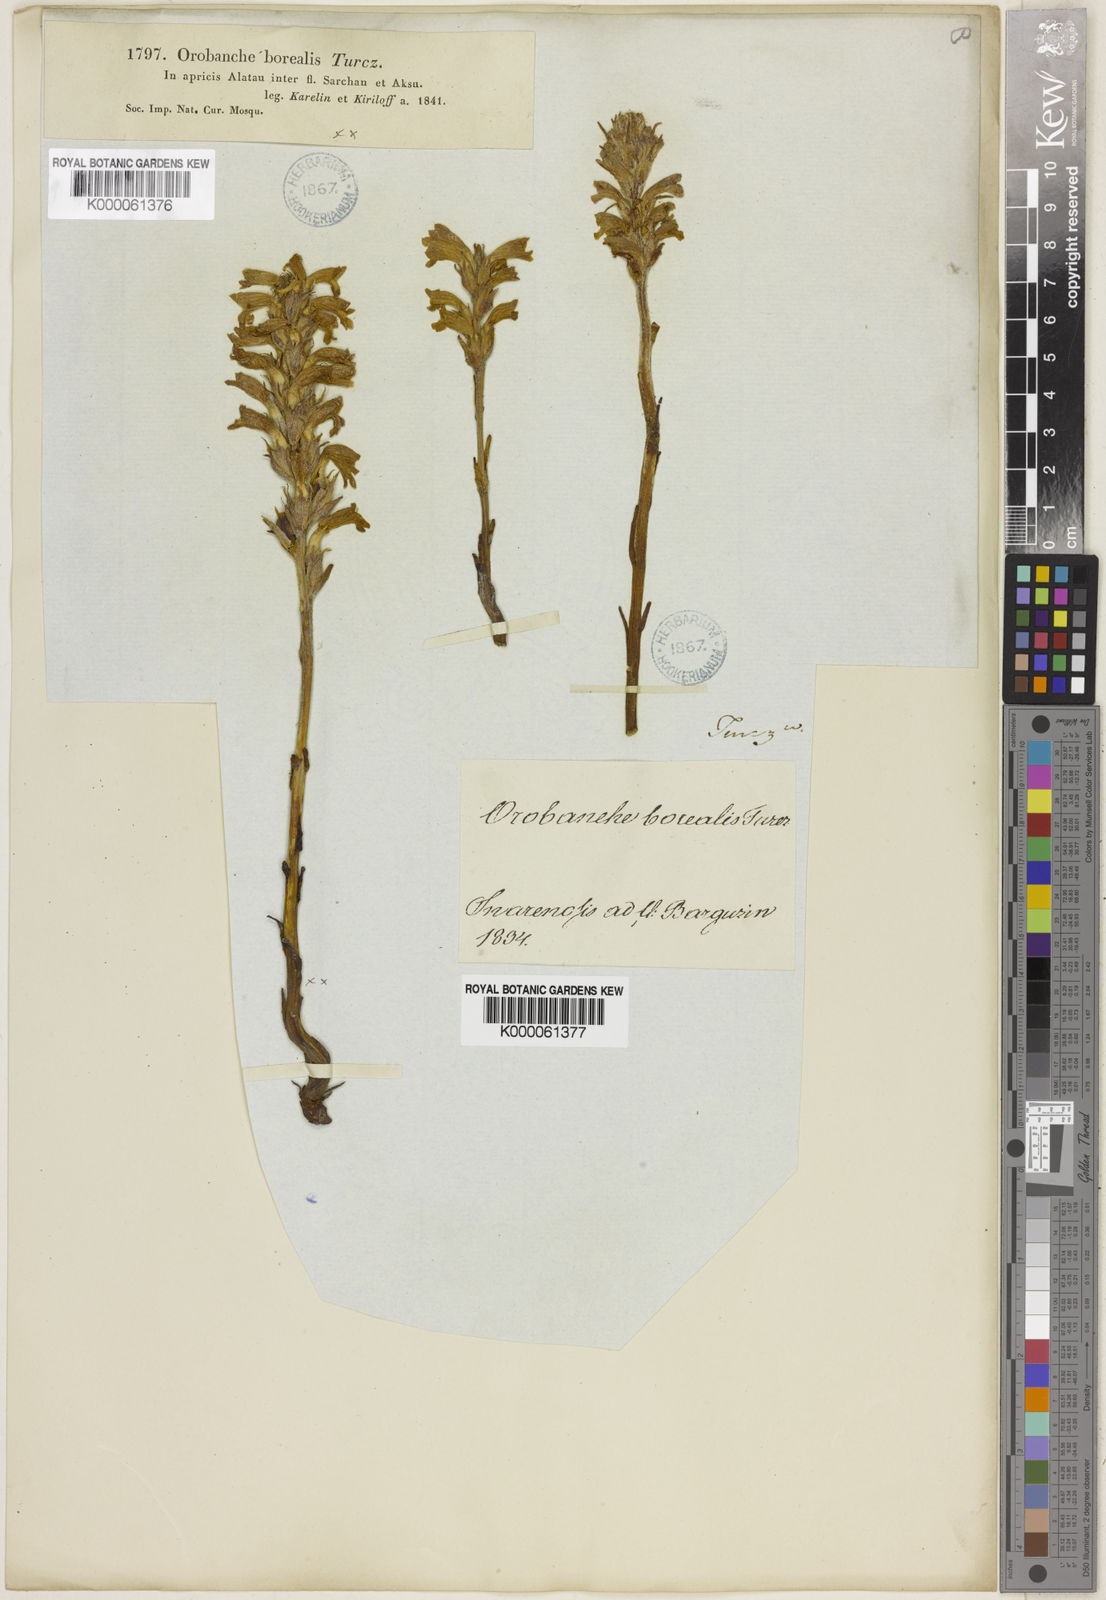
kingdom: Plantae
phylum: Tracheophyta
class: Magnoliopsida
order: Lamiales
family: Orobanchaceae
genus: Phelipanche
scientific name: Phelipanche caesia
